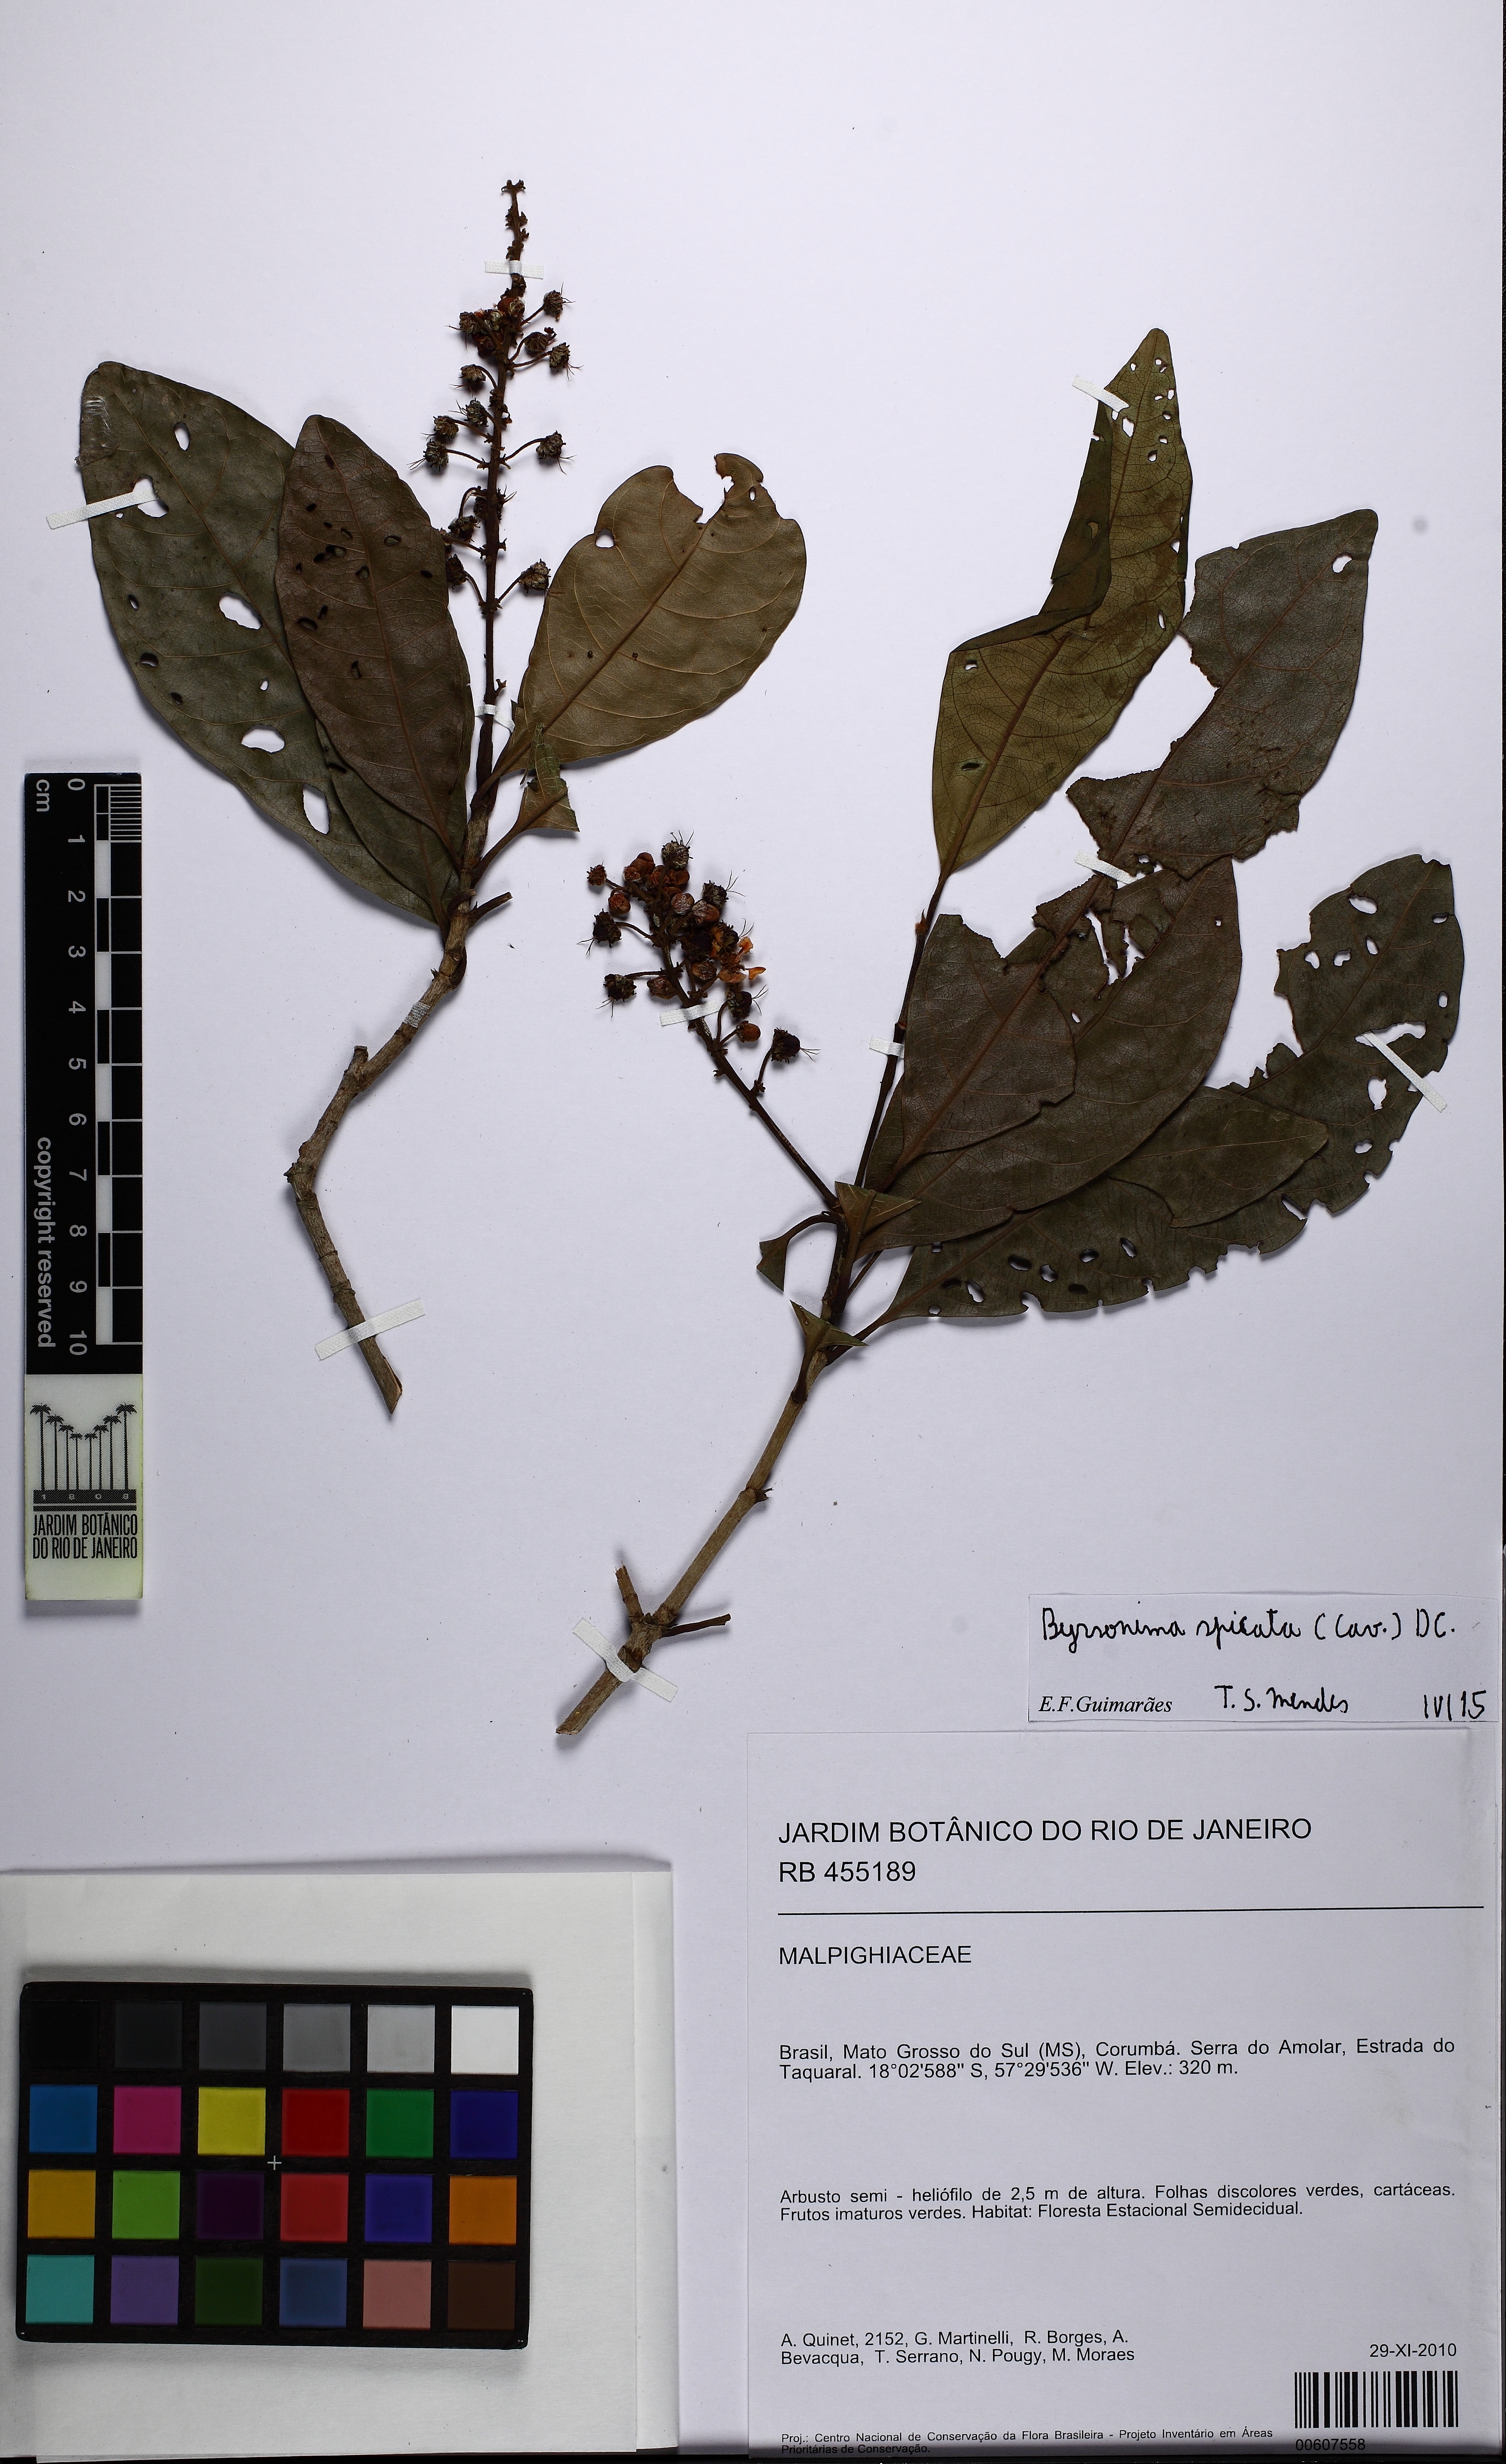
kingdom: Plantae
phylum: Tracheophyta
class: Magnoliopsida
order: Malpighiales
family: Malpighiaceae
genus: Byrsonima
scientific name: Byrsonima spicata
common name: Murixi-bark-tree
